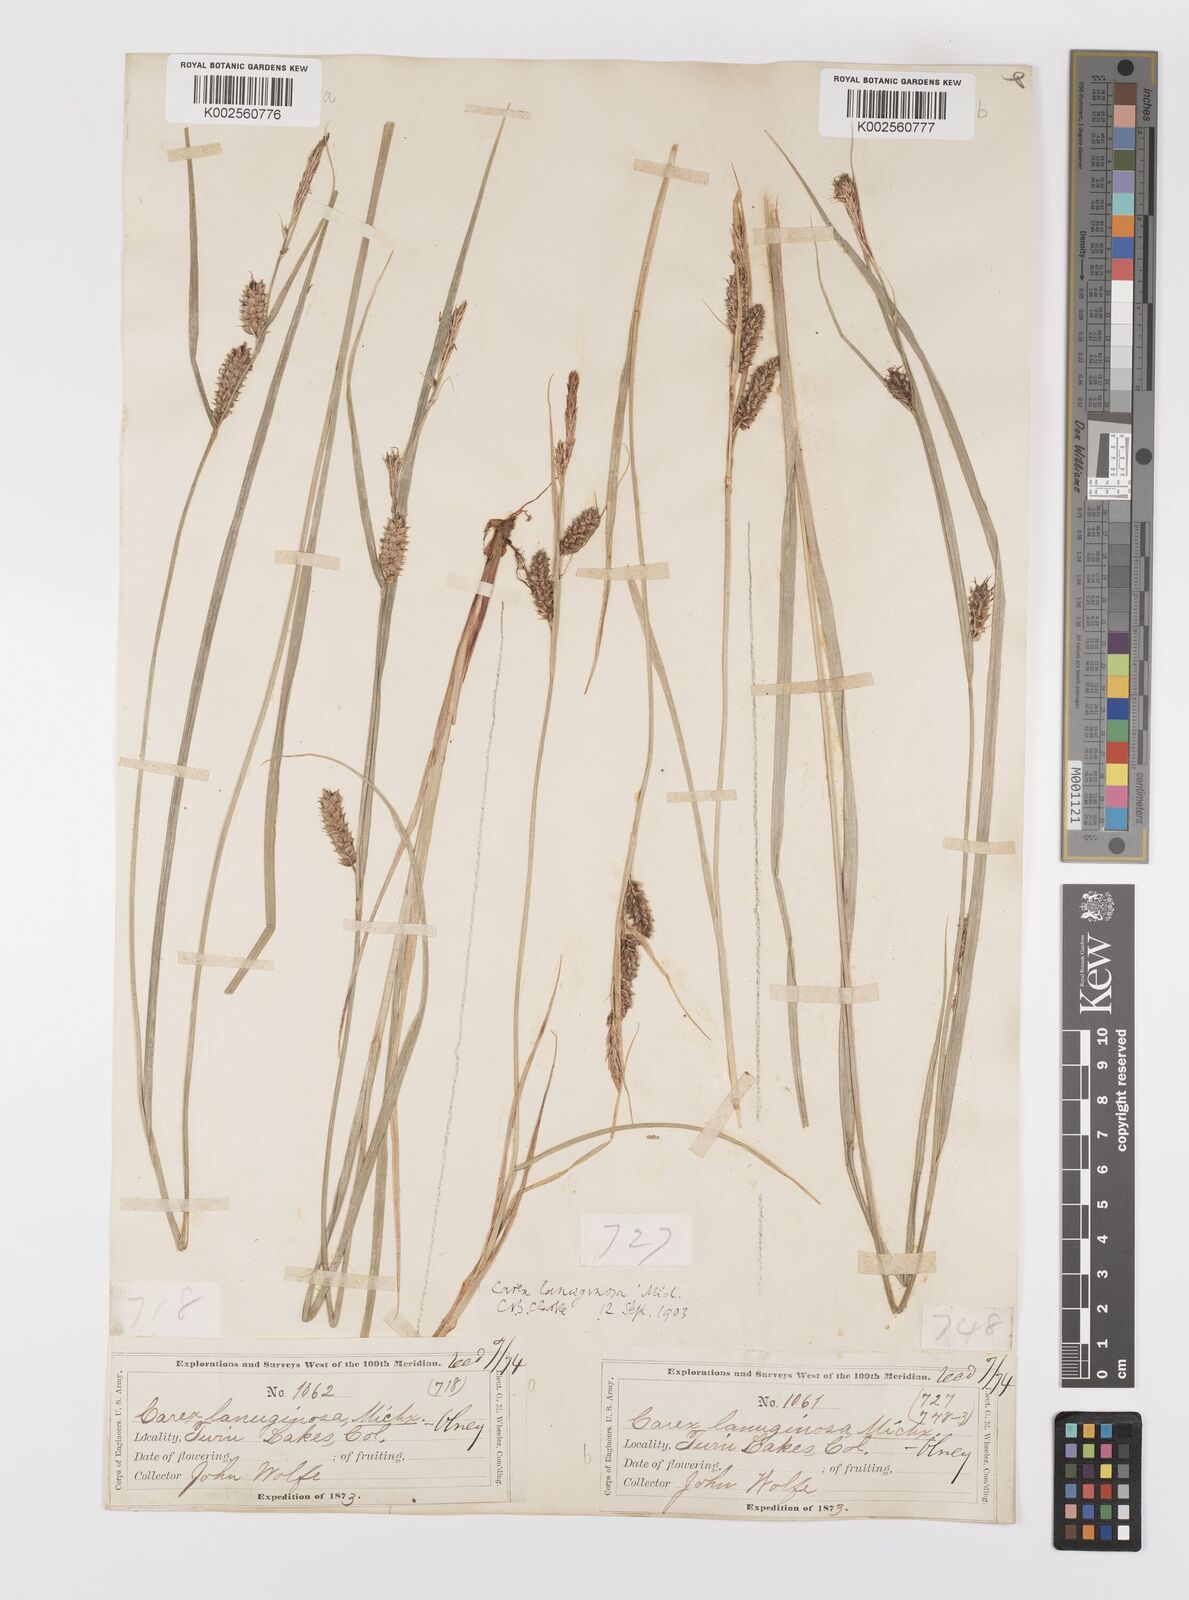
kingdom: Plantae
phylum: Tracheophyta
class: Liliopsida
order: Poales
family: Cyperaceae
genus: Carex
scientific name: Carex lasiocarpa
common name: Slender sedge
